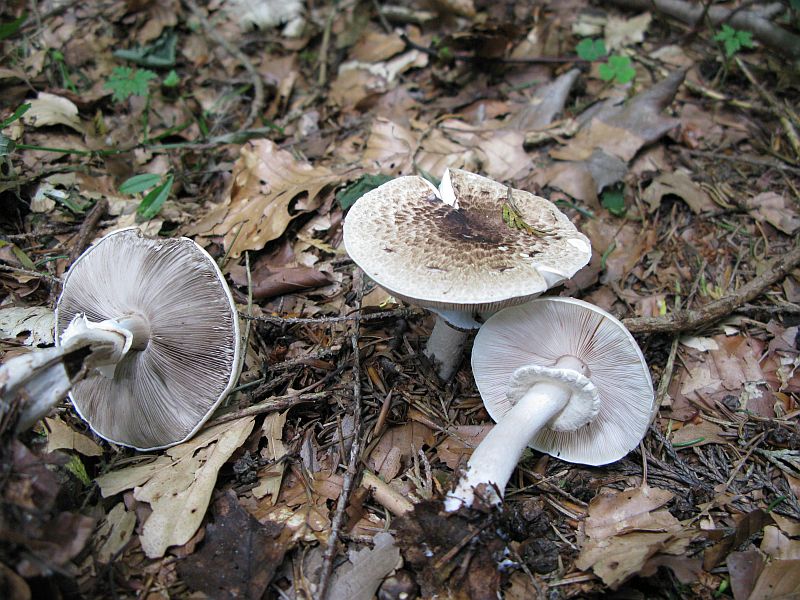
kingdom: Fungi
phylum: Basidiomycota
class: Agaricomycetes
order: Agaricales
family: Agaricaceae
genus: Agaricus
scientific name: Agaricus impudicus
